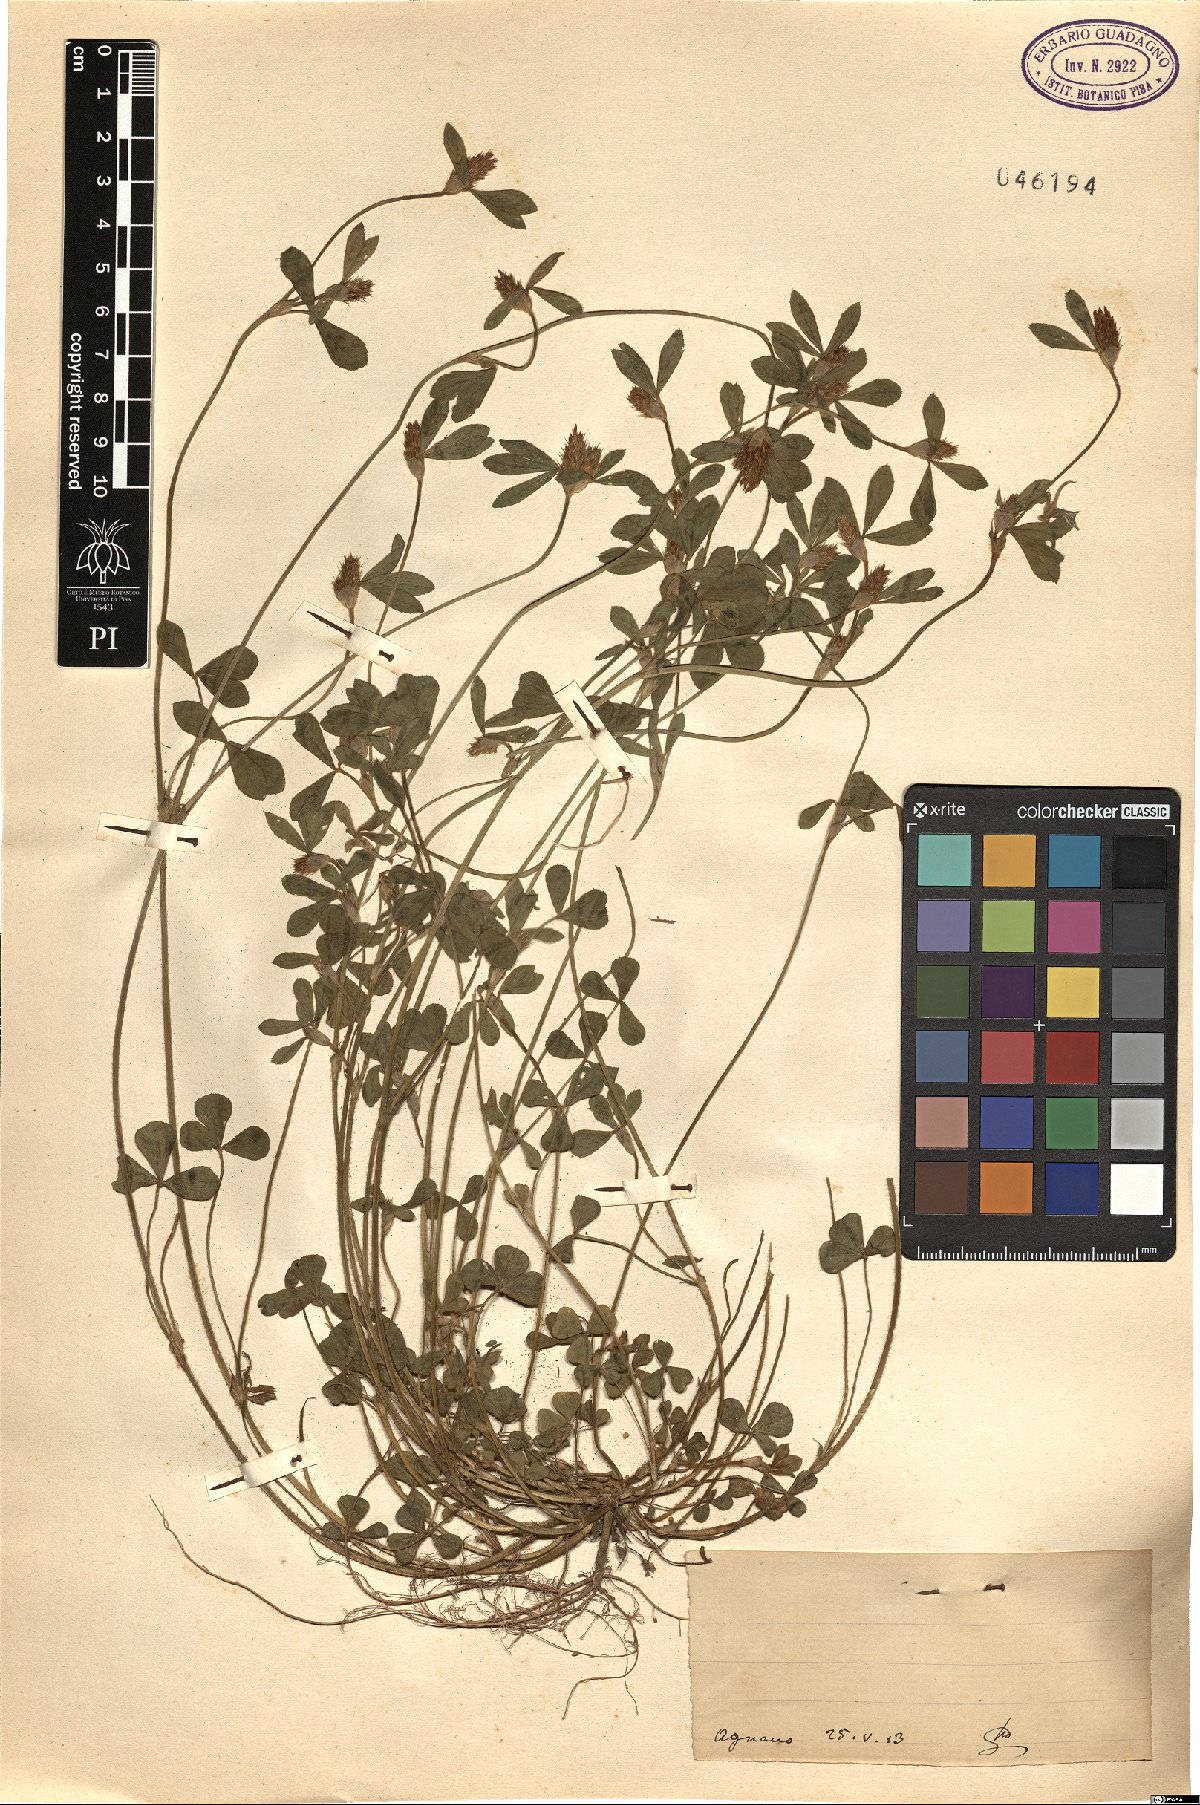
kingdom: Plantae
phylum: Tracheophyta
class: Magnoliopsida
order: Fabales
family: Fabaceae
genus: Trifolium
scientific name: Trifolium
